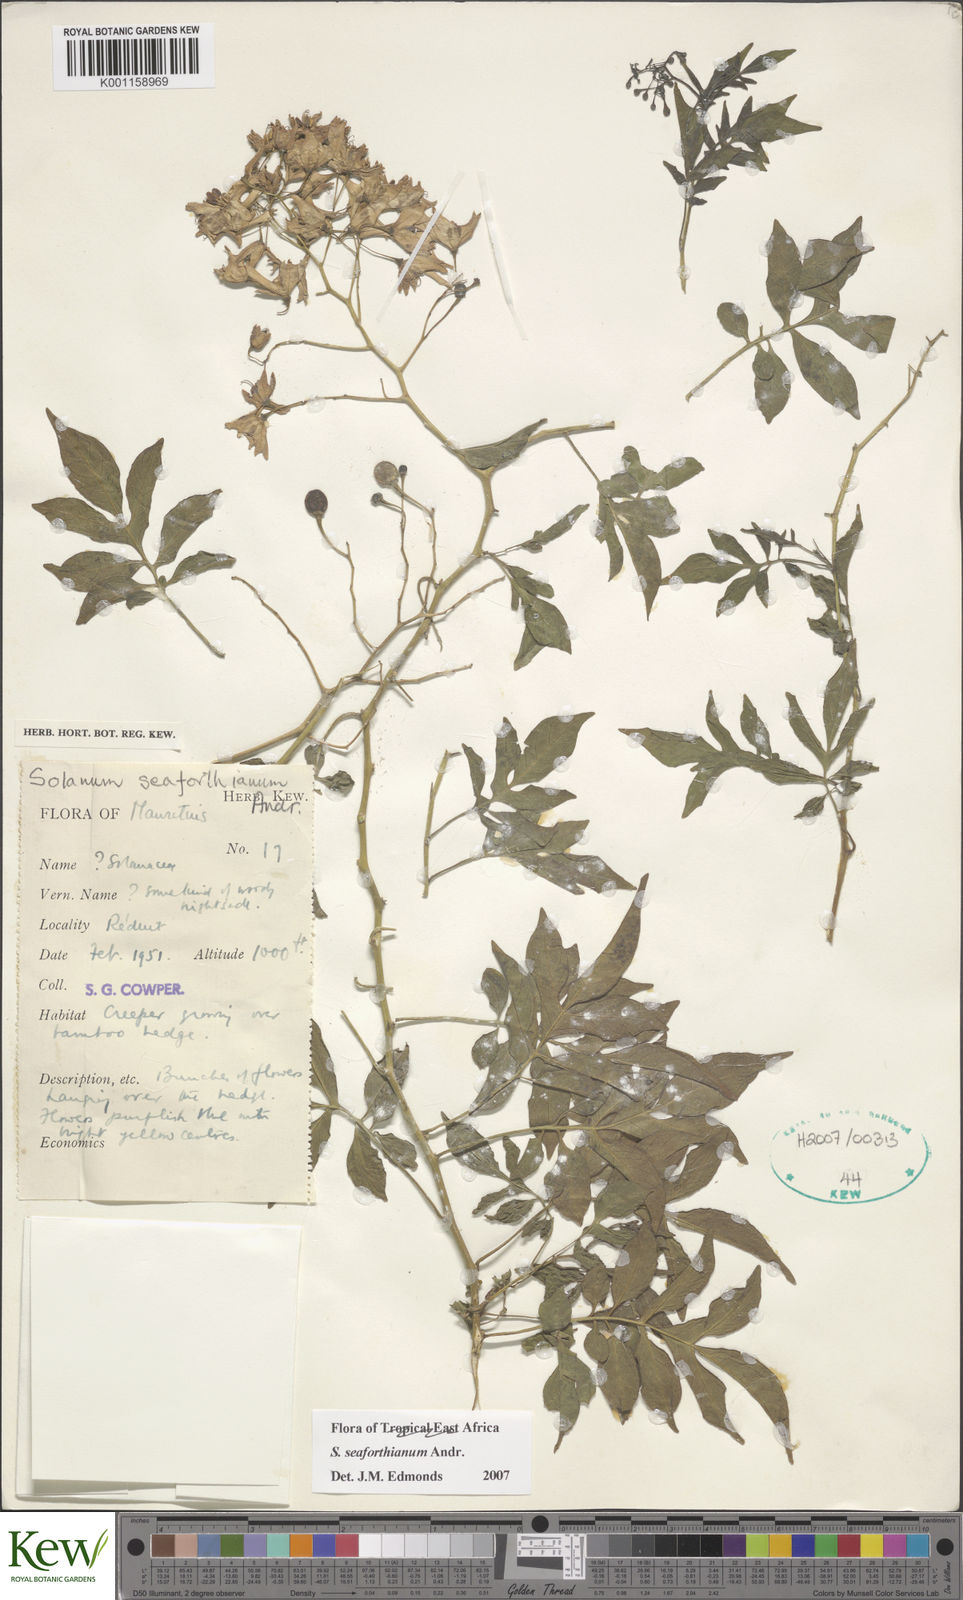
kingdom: Plantae
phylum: Tracheophyta
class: Magnoliopsida
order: Solanales
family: Solanaceae
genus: Solanum
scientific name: Solanum seaforthianum
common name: Brazilian nightshade
